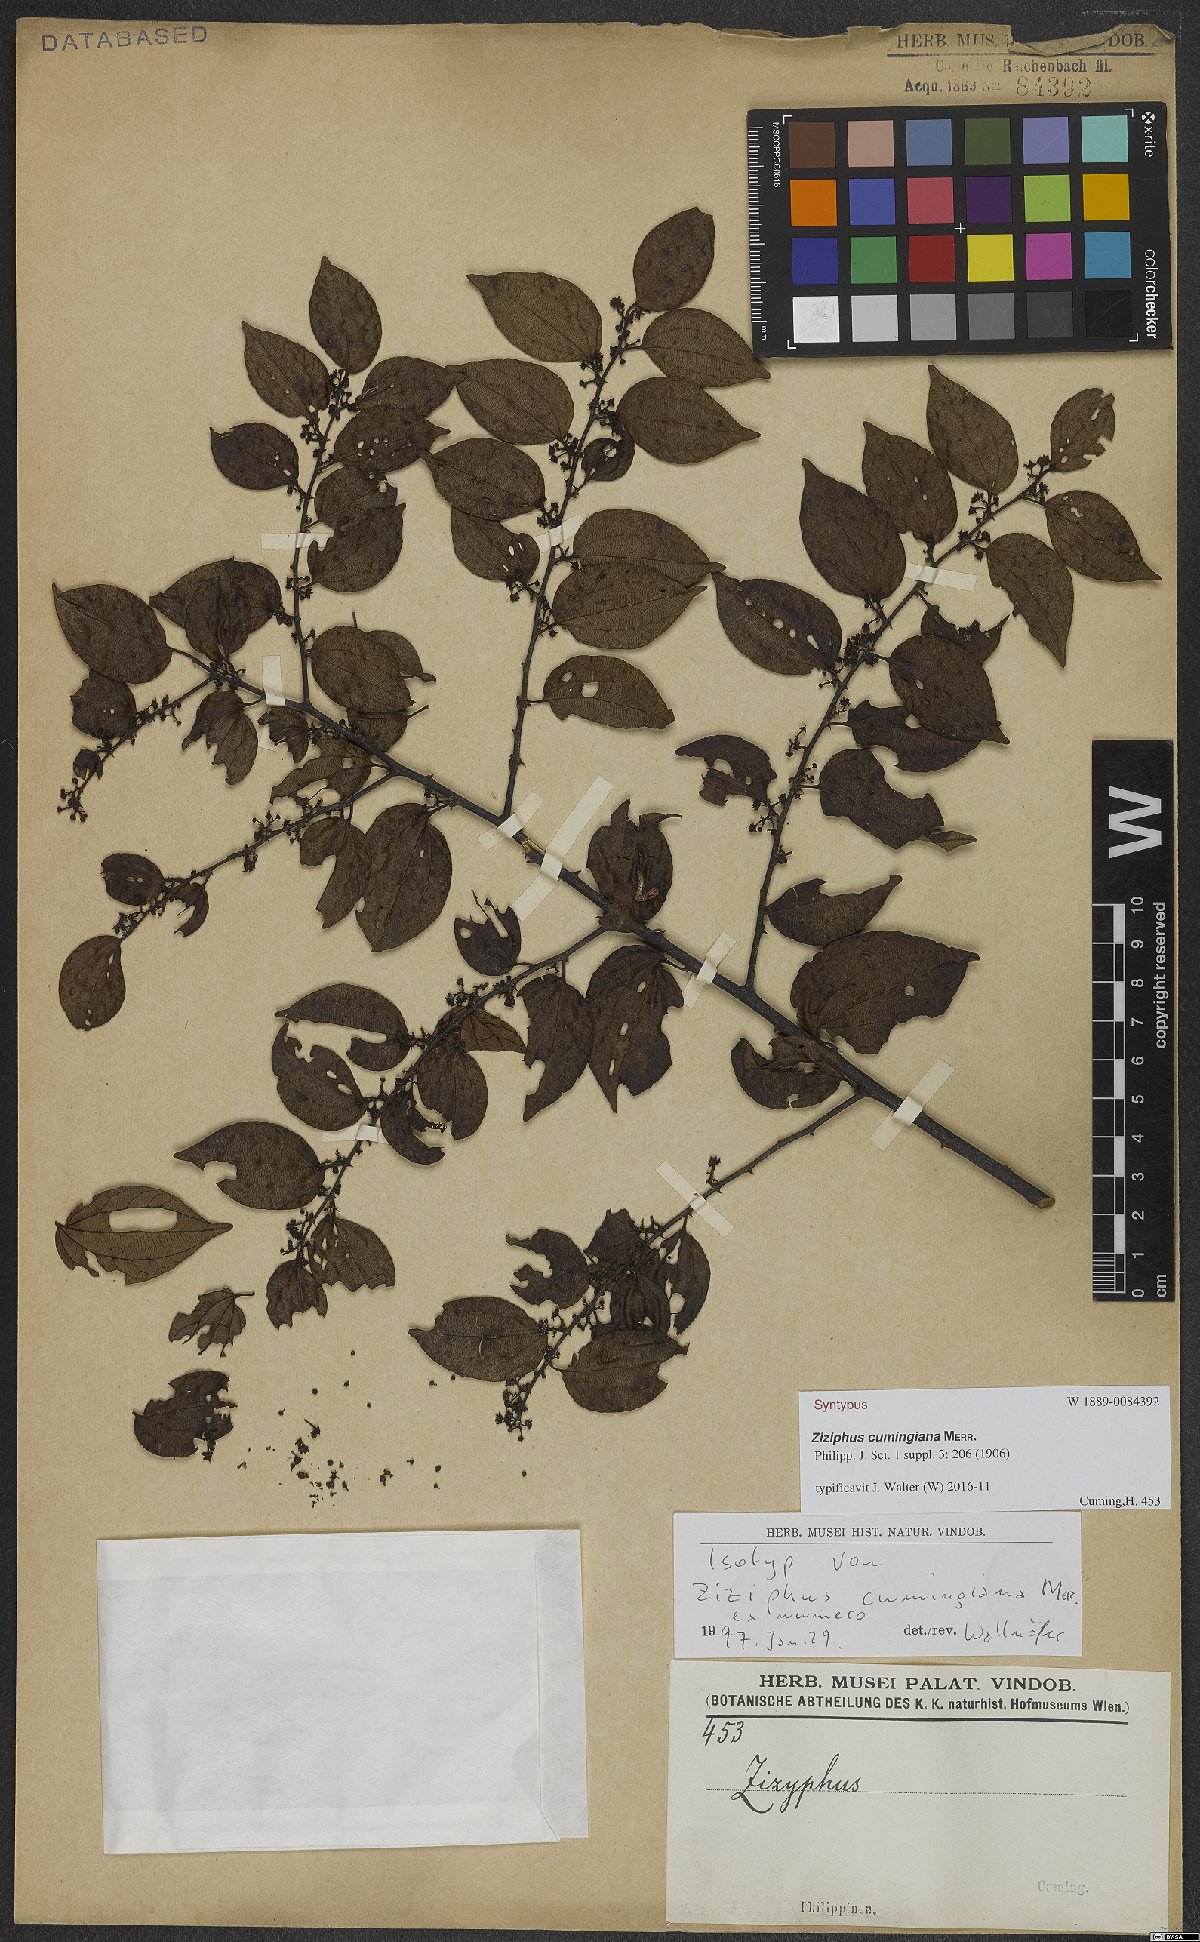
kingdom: Plantae
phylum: Tracheophyta
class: Magnoliopsida
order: Rosales
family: Rhamnaceae
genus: Ziziphus
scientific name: Ziziphus cumingiana
